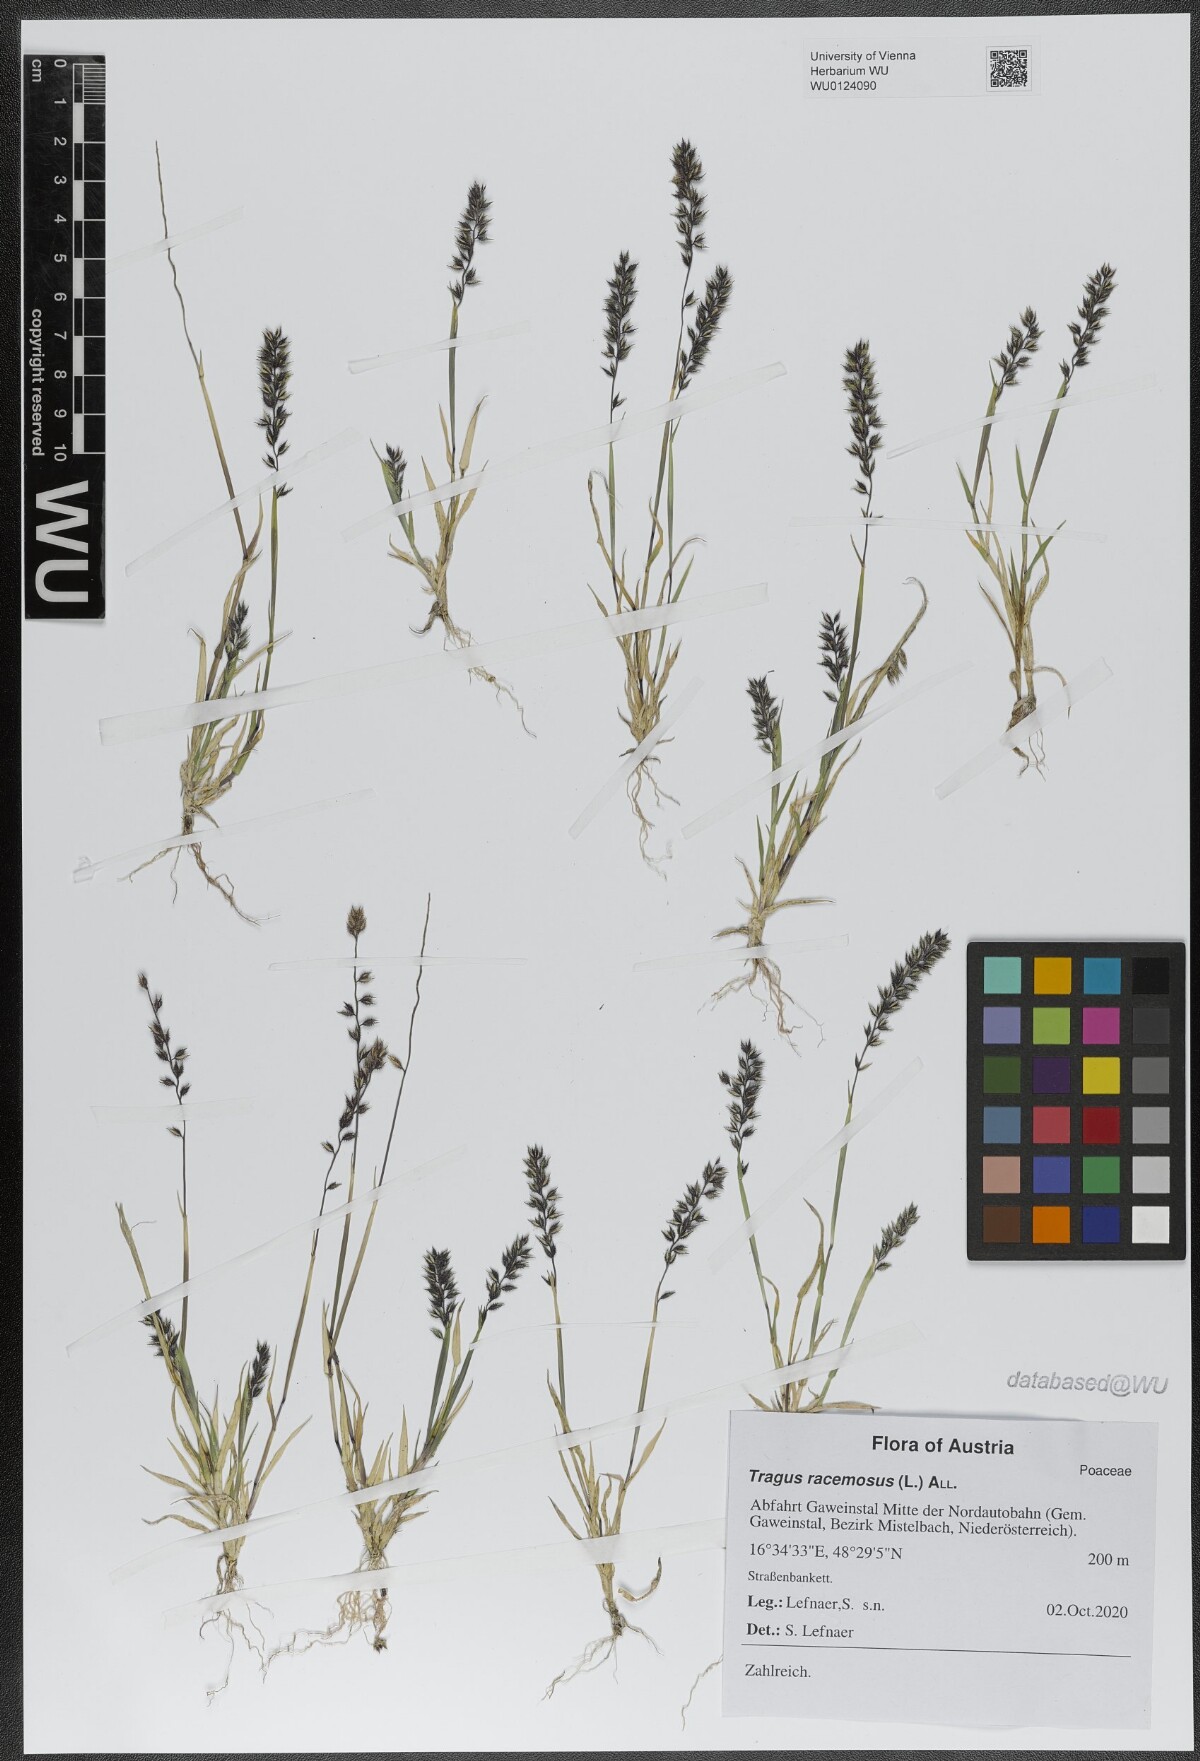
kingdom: Plantae
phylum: Tracheophyta
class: Liliopsida
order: Poales
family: Poaceae
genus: Tragus
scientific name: Tragus racemosus
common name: European bur-grass
